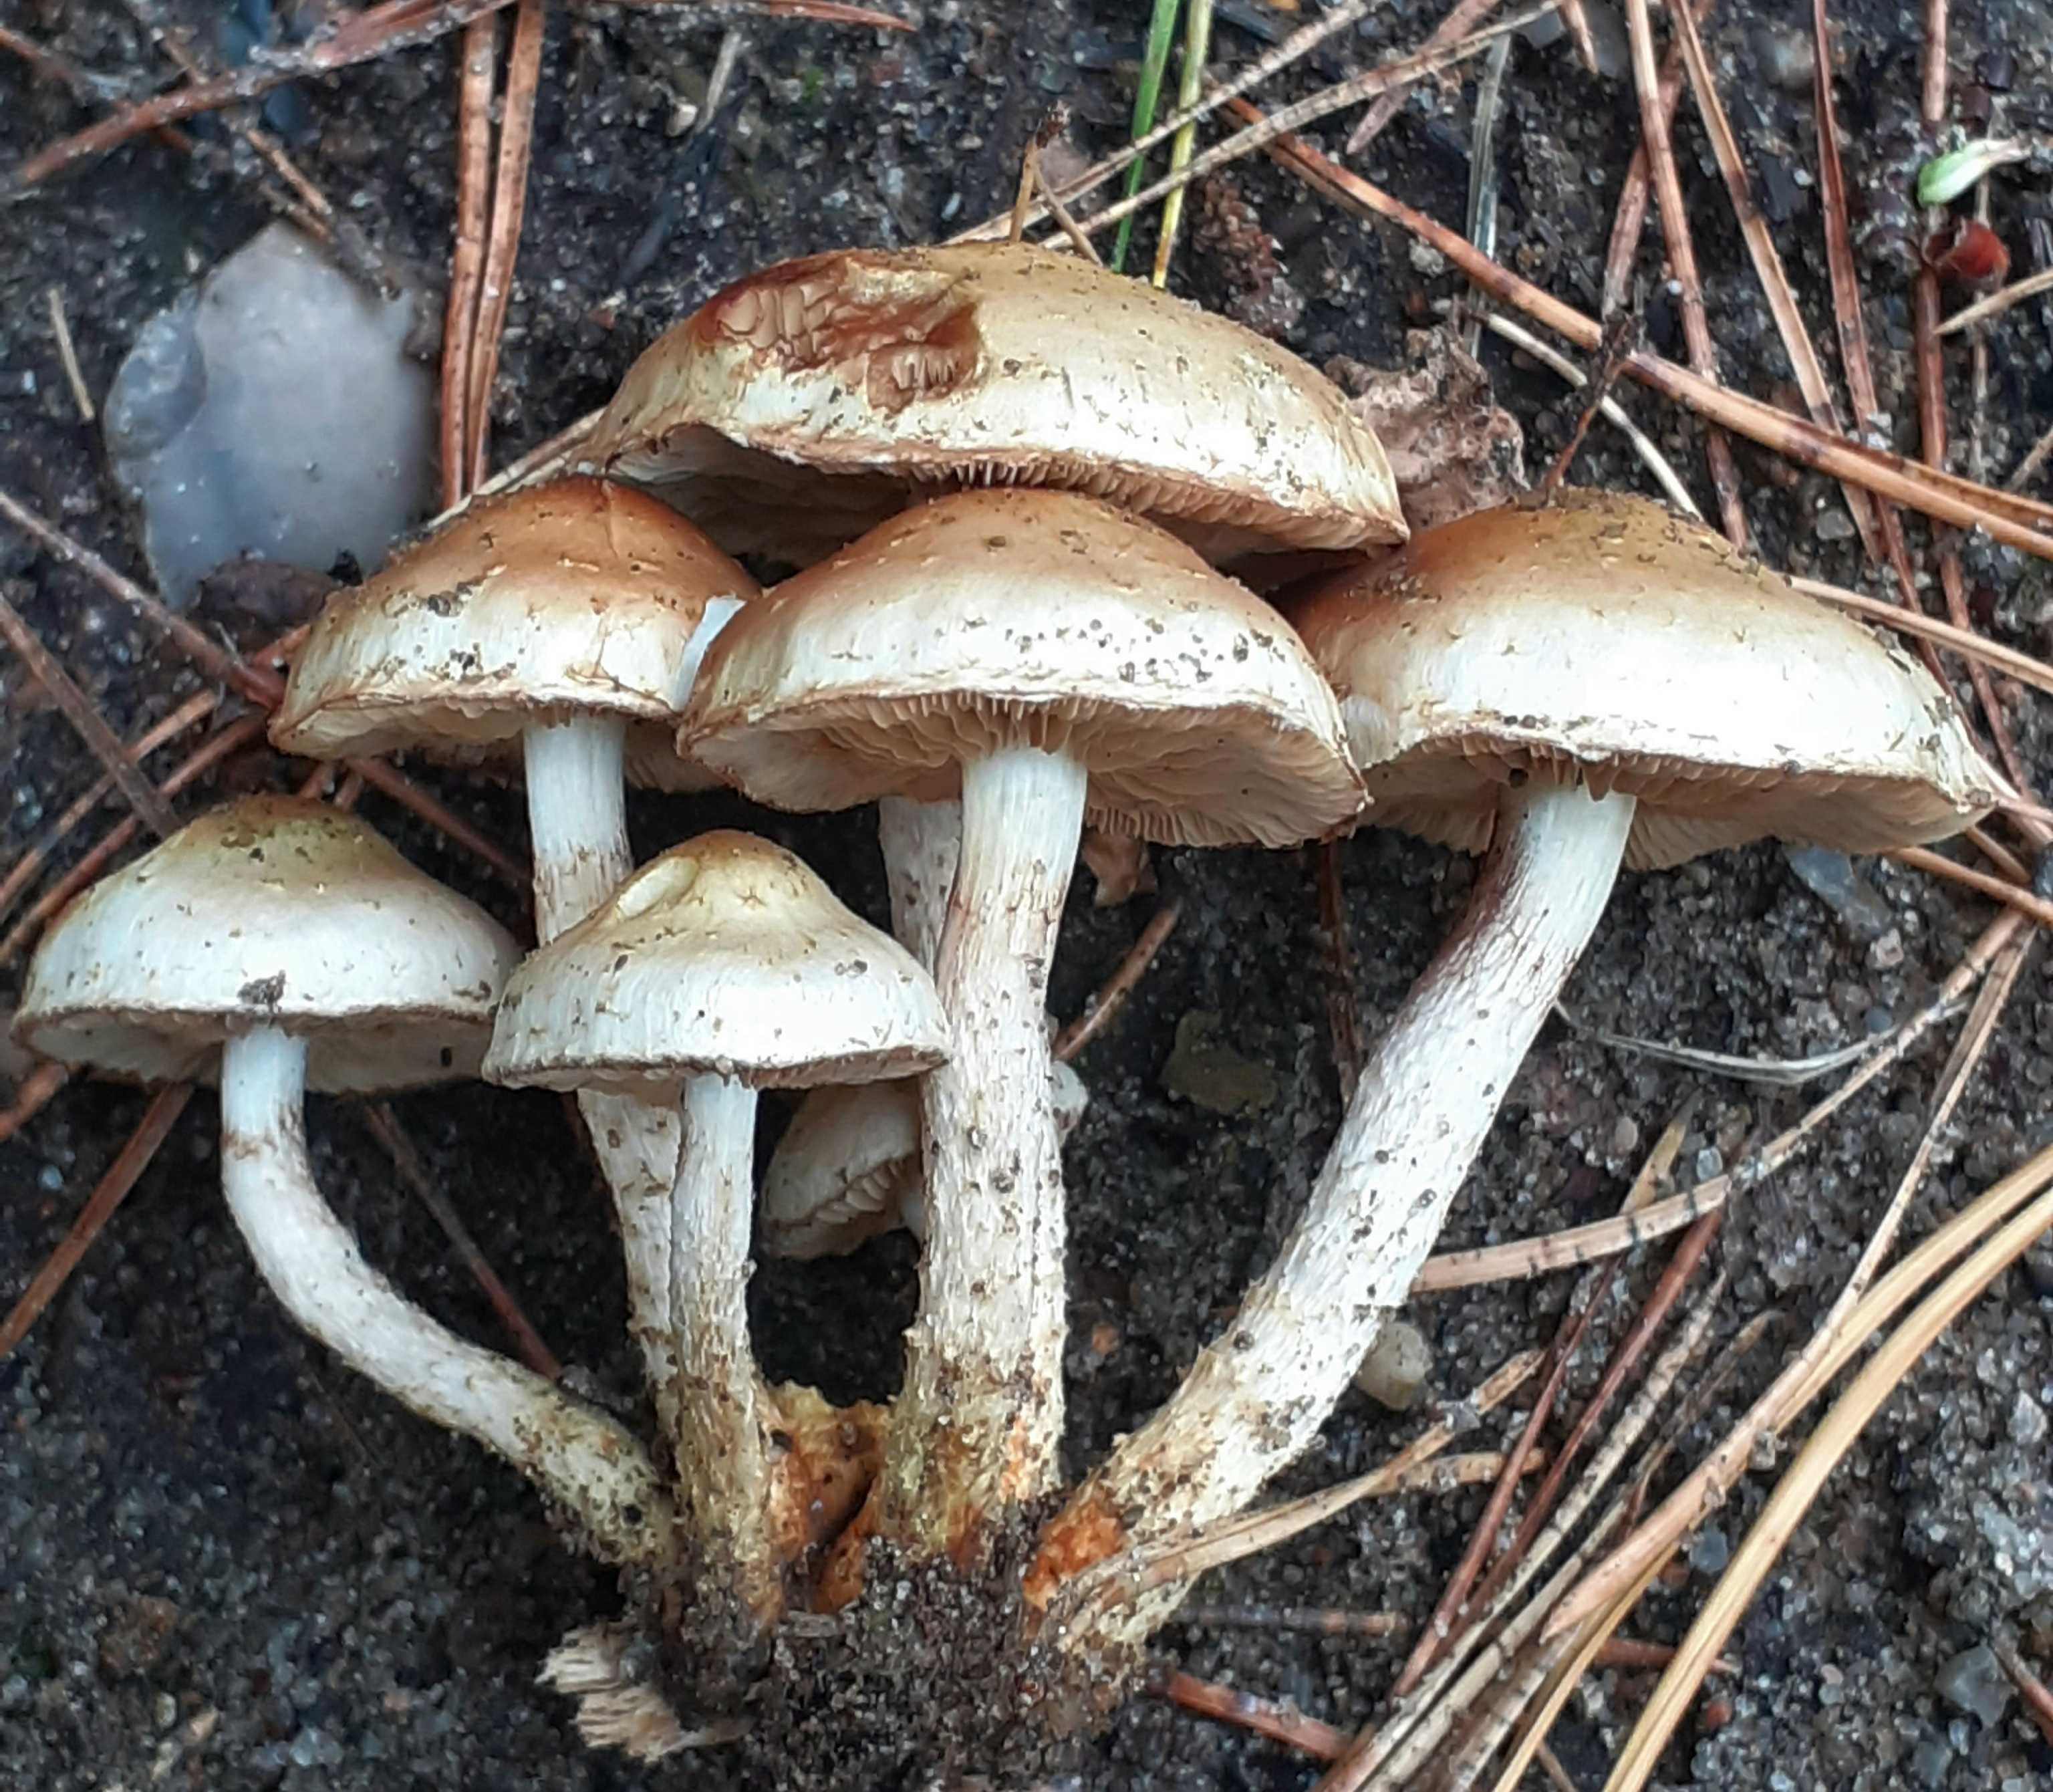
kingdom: Fungi
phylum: Basidiomycota
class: Agaricomycetes
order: Agaricales
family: Strophariaceae
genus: Pholiota
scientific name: Pholiota gummosa
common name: grøngul skælhat
